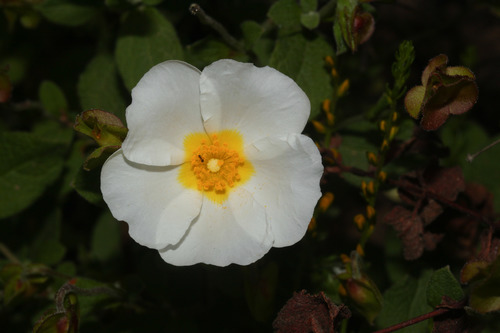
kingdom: Plantae
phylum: Tracheophyta
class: Magnoliopsida
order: Malvales
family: Cistaceae
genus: Cistus
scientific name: Cistus salviifolius
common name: Salvia cistus
